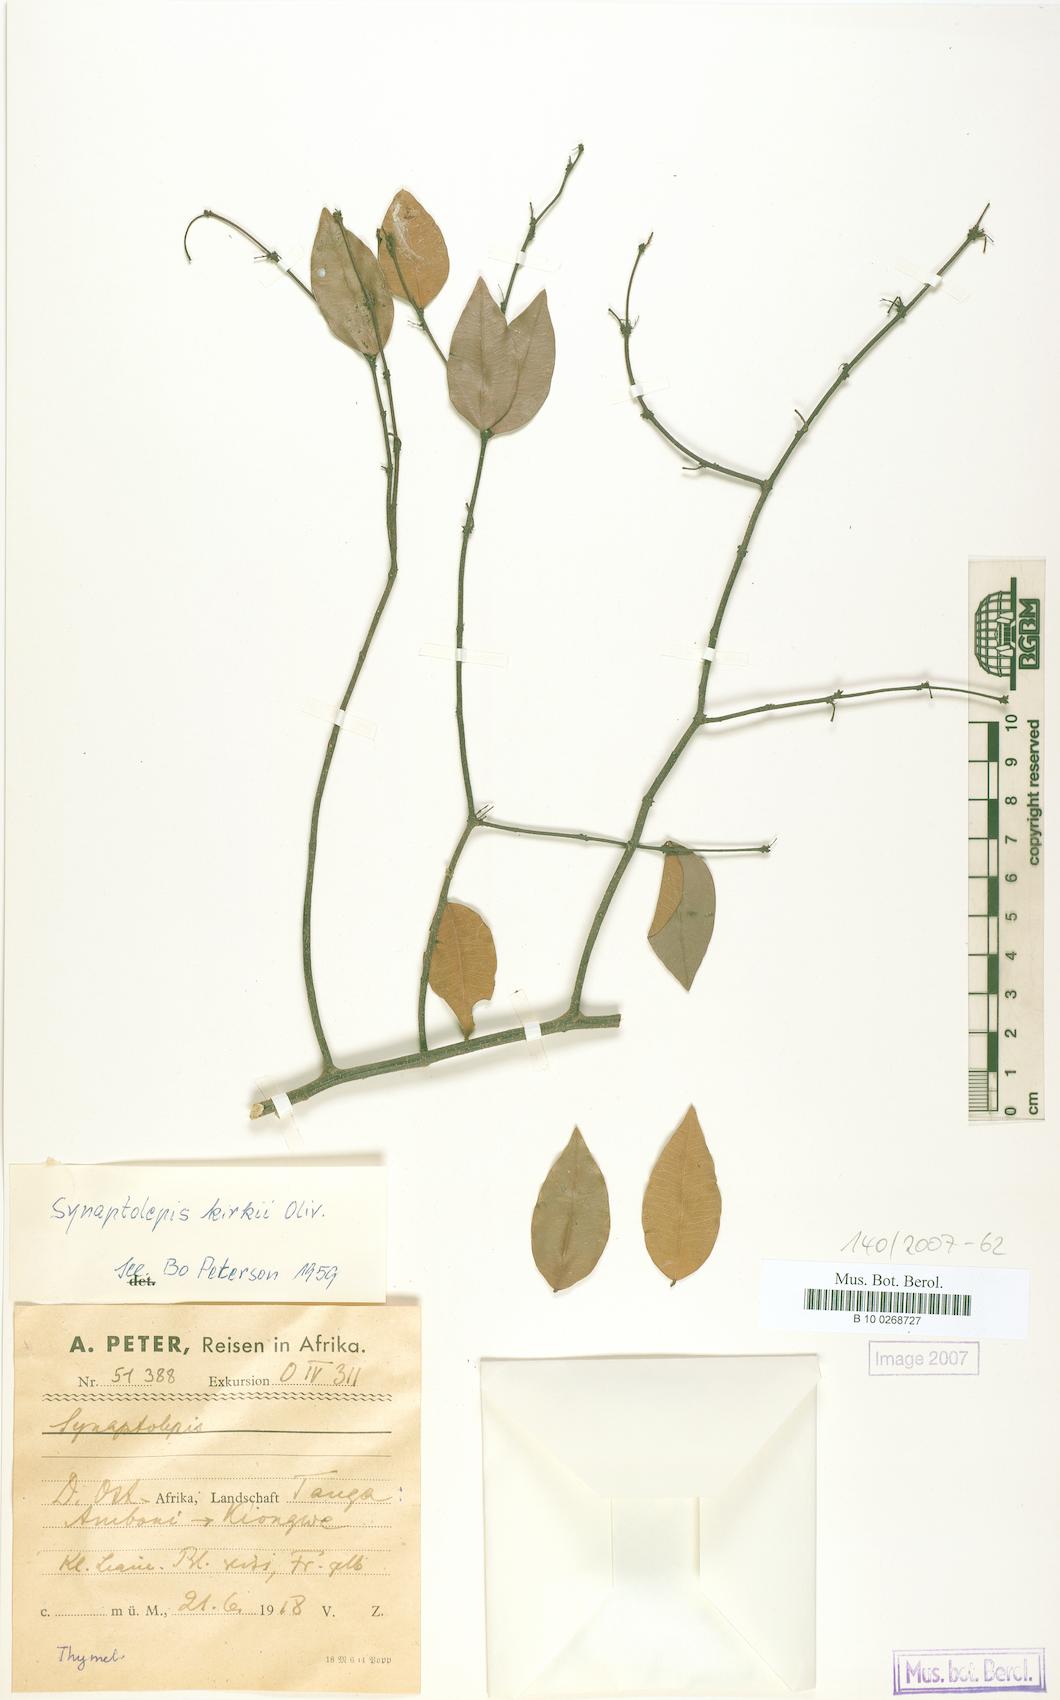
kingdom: Plantae
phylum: Tracheophyta
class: Magnoliopsida
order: Malvales
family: Thymelaeaceae
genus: Synaptolepis
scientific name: Synaptolepis kirkii
